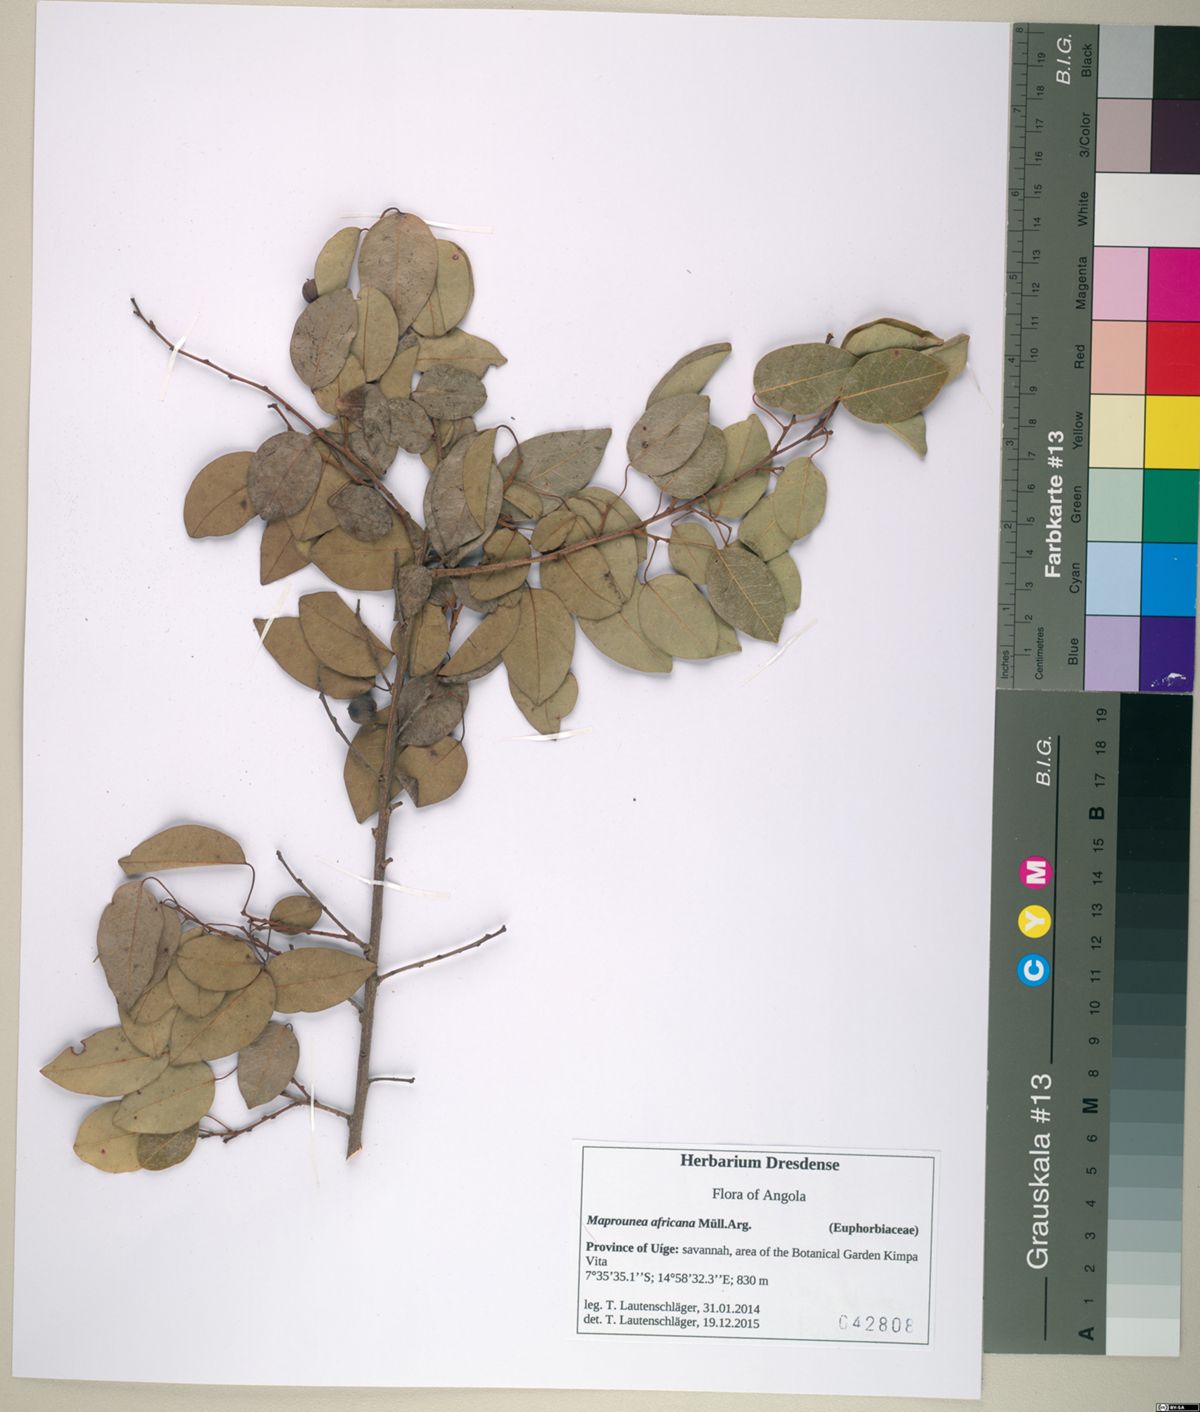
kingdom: Plantae
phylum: Tracheophyta
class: Magnoliopsida
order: Malpighiales
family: Euphorbiaceae
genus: Maprounea
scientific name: Maprounea africana
